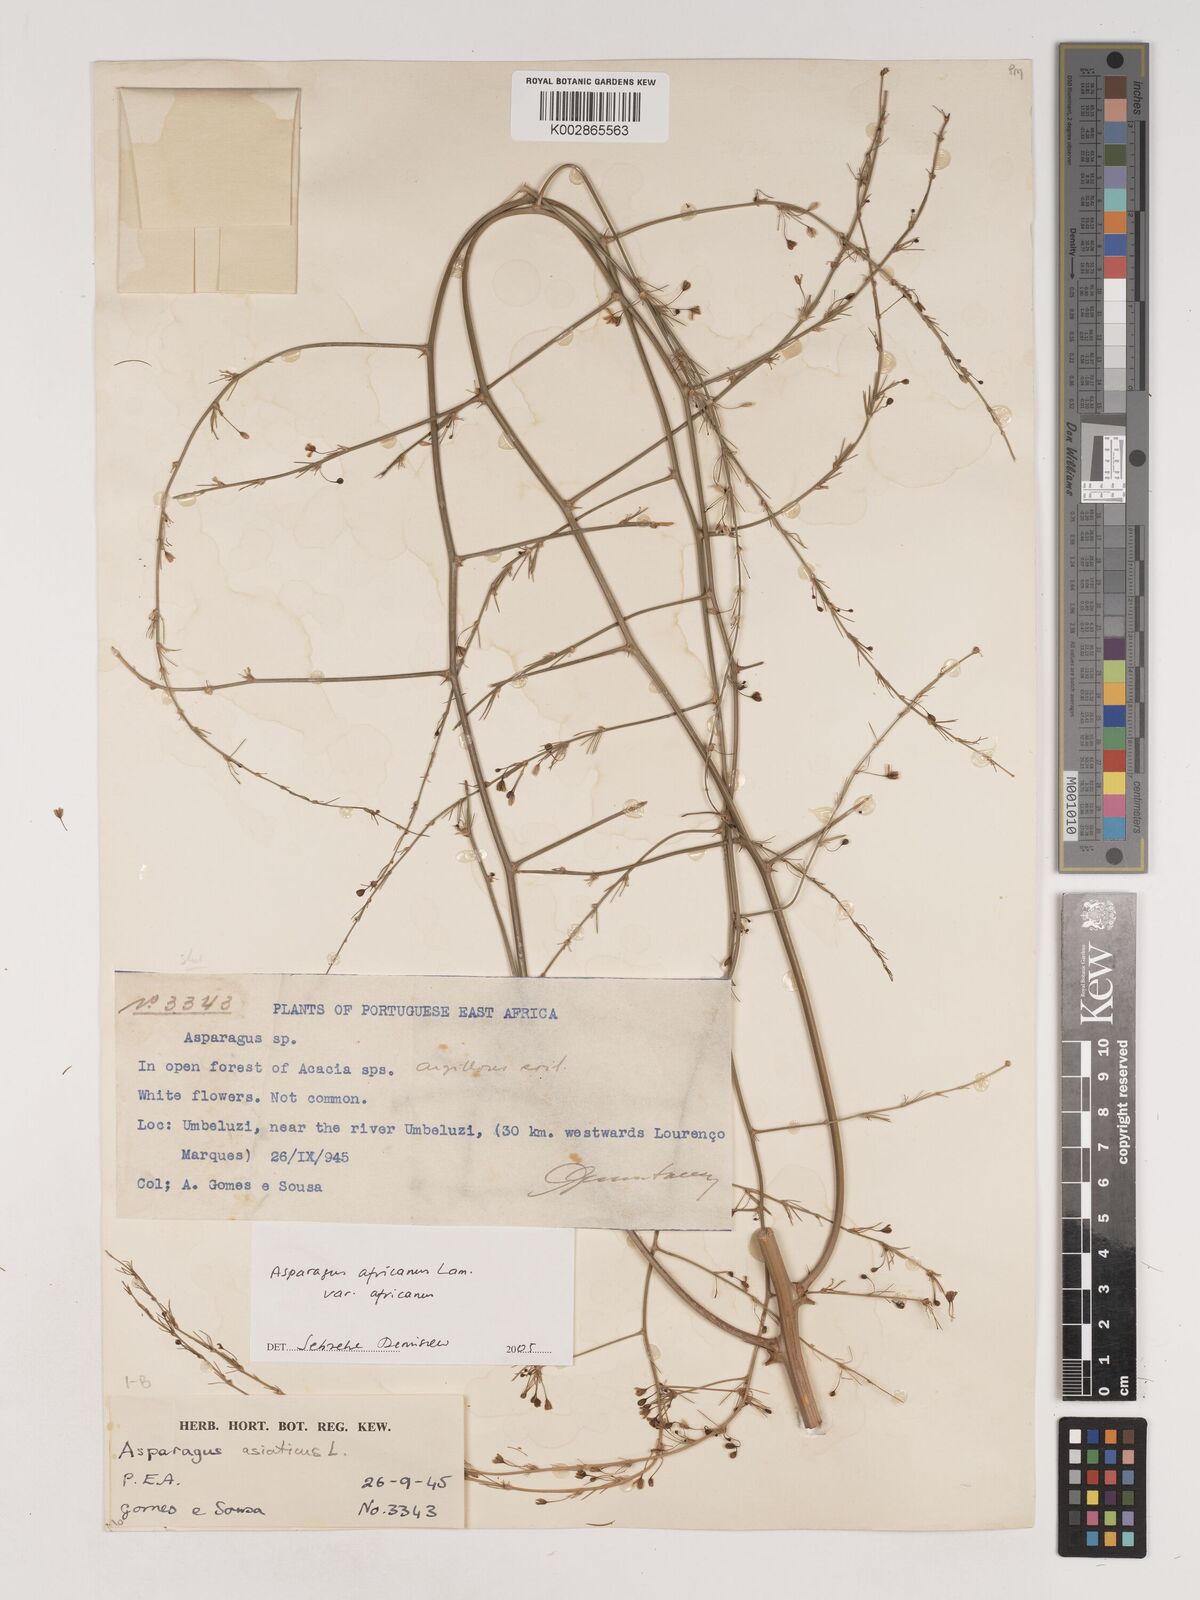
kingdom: Plantae
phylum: Tracheophyta
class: Liliopsida
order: Asparagales
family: Asparagaceae
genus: Asparagus
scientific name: Asparagus africanus
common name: Asparagus-fern
